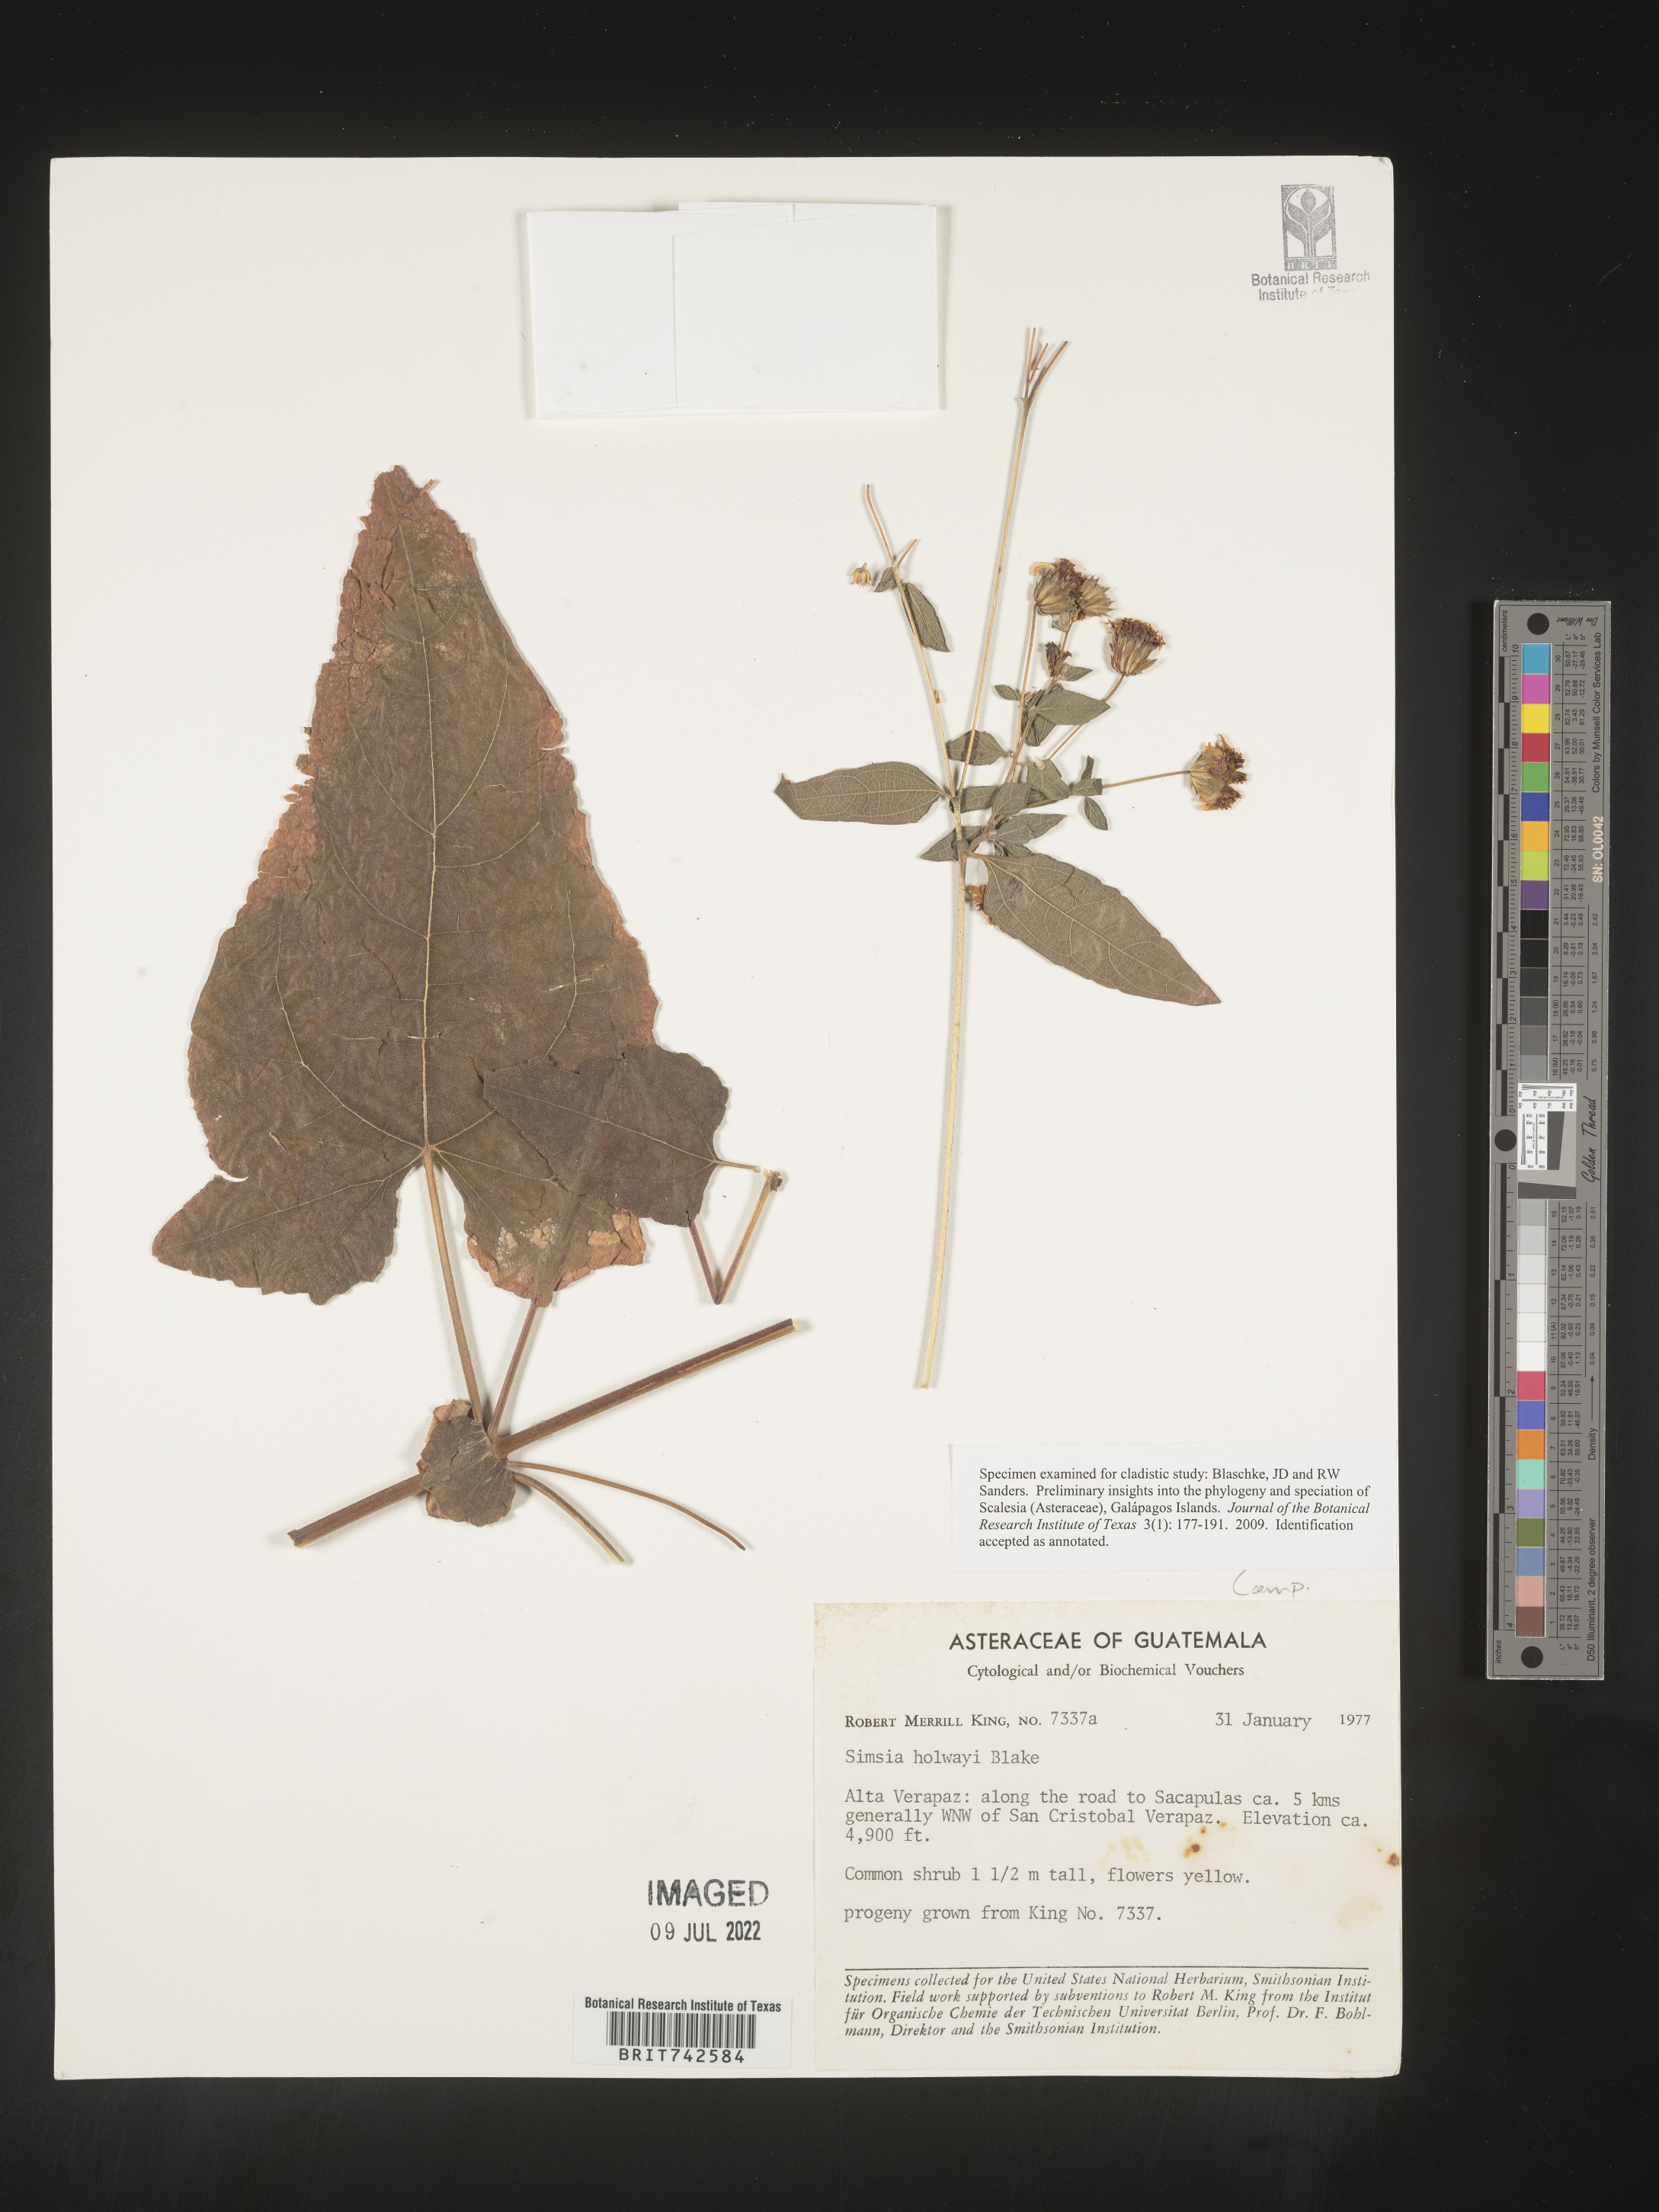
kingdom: Plantae
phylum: Tracheophyta
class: Magnoliopsida
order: Asterales
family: Asteraceae
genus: Simsia
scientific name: Simsia
